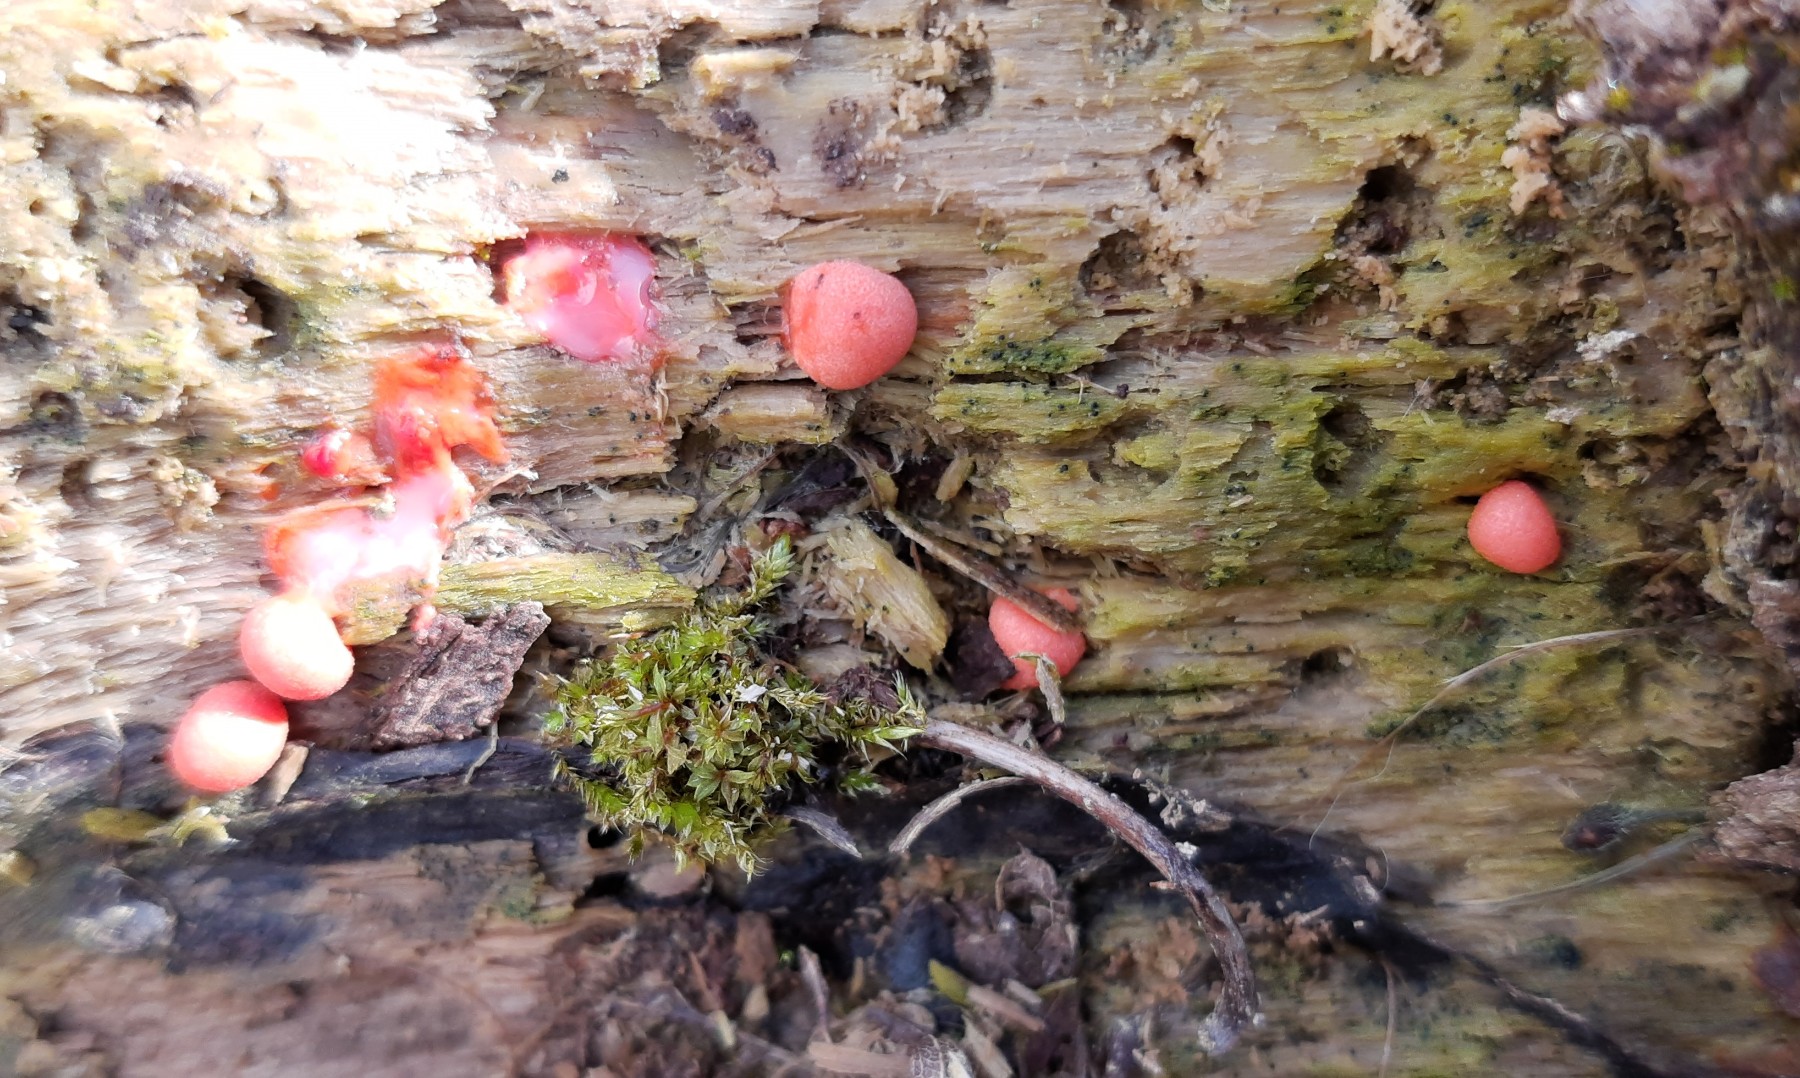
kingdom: Protozoa
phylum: Mycetozoa
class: Myxomycetes
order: Cribrariales
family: Tubiferaceae
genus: Lycogala
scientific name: Lycogala epidendrum
